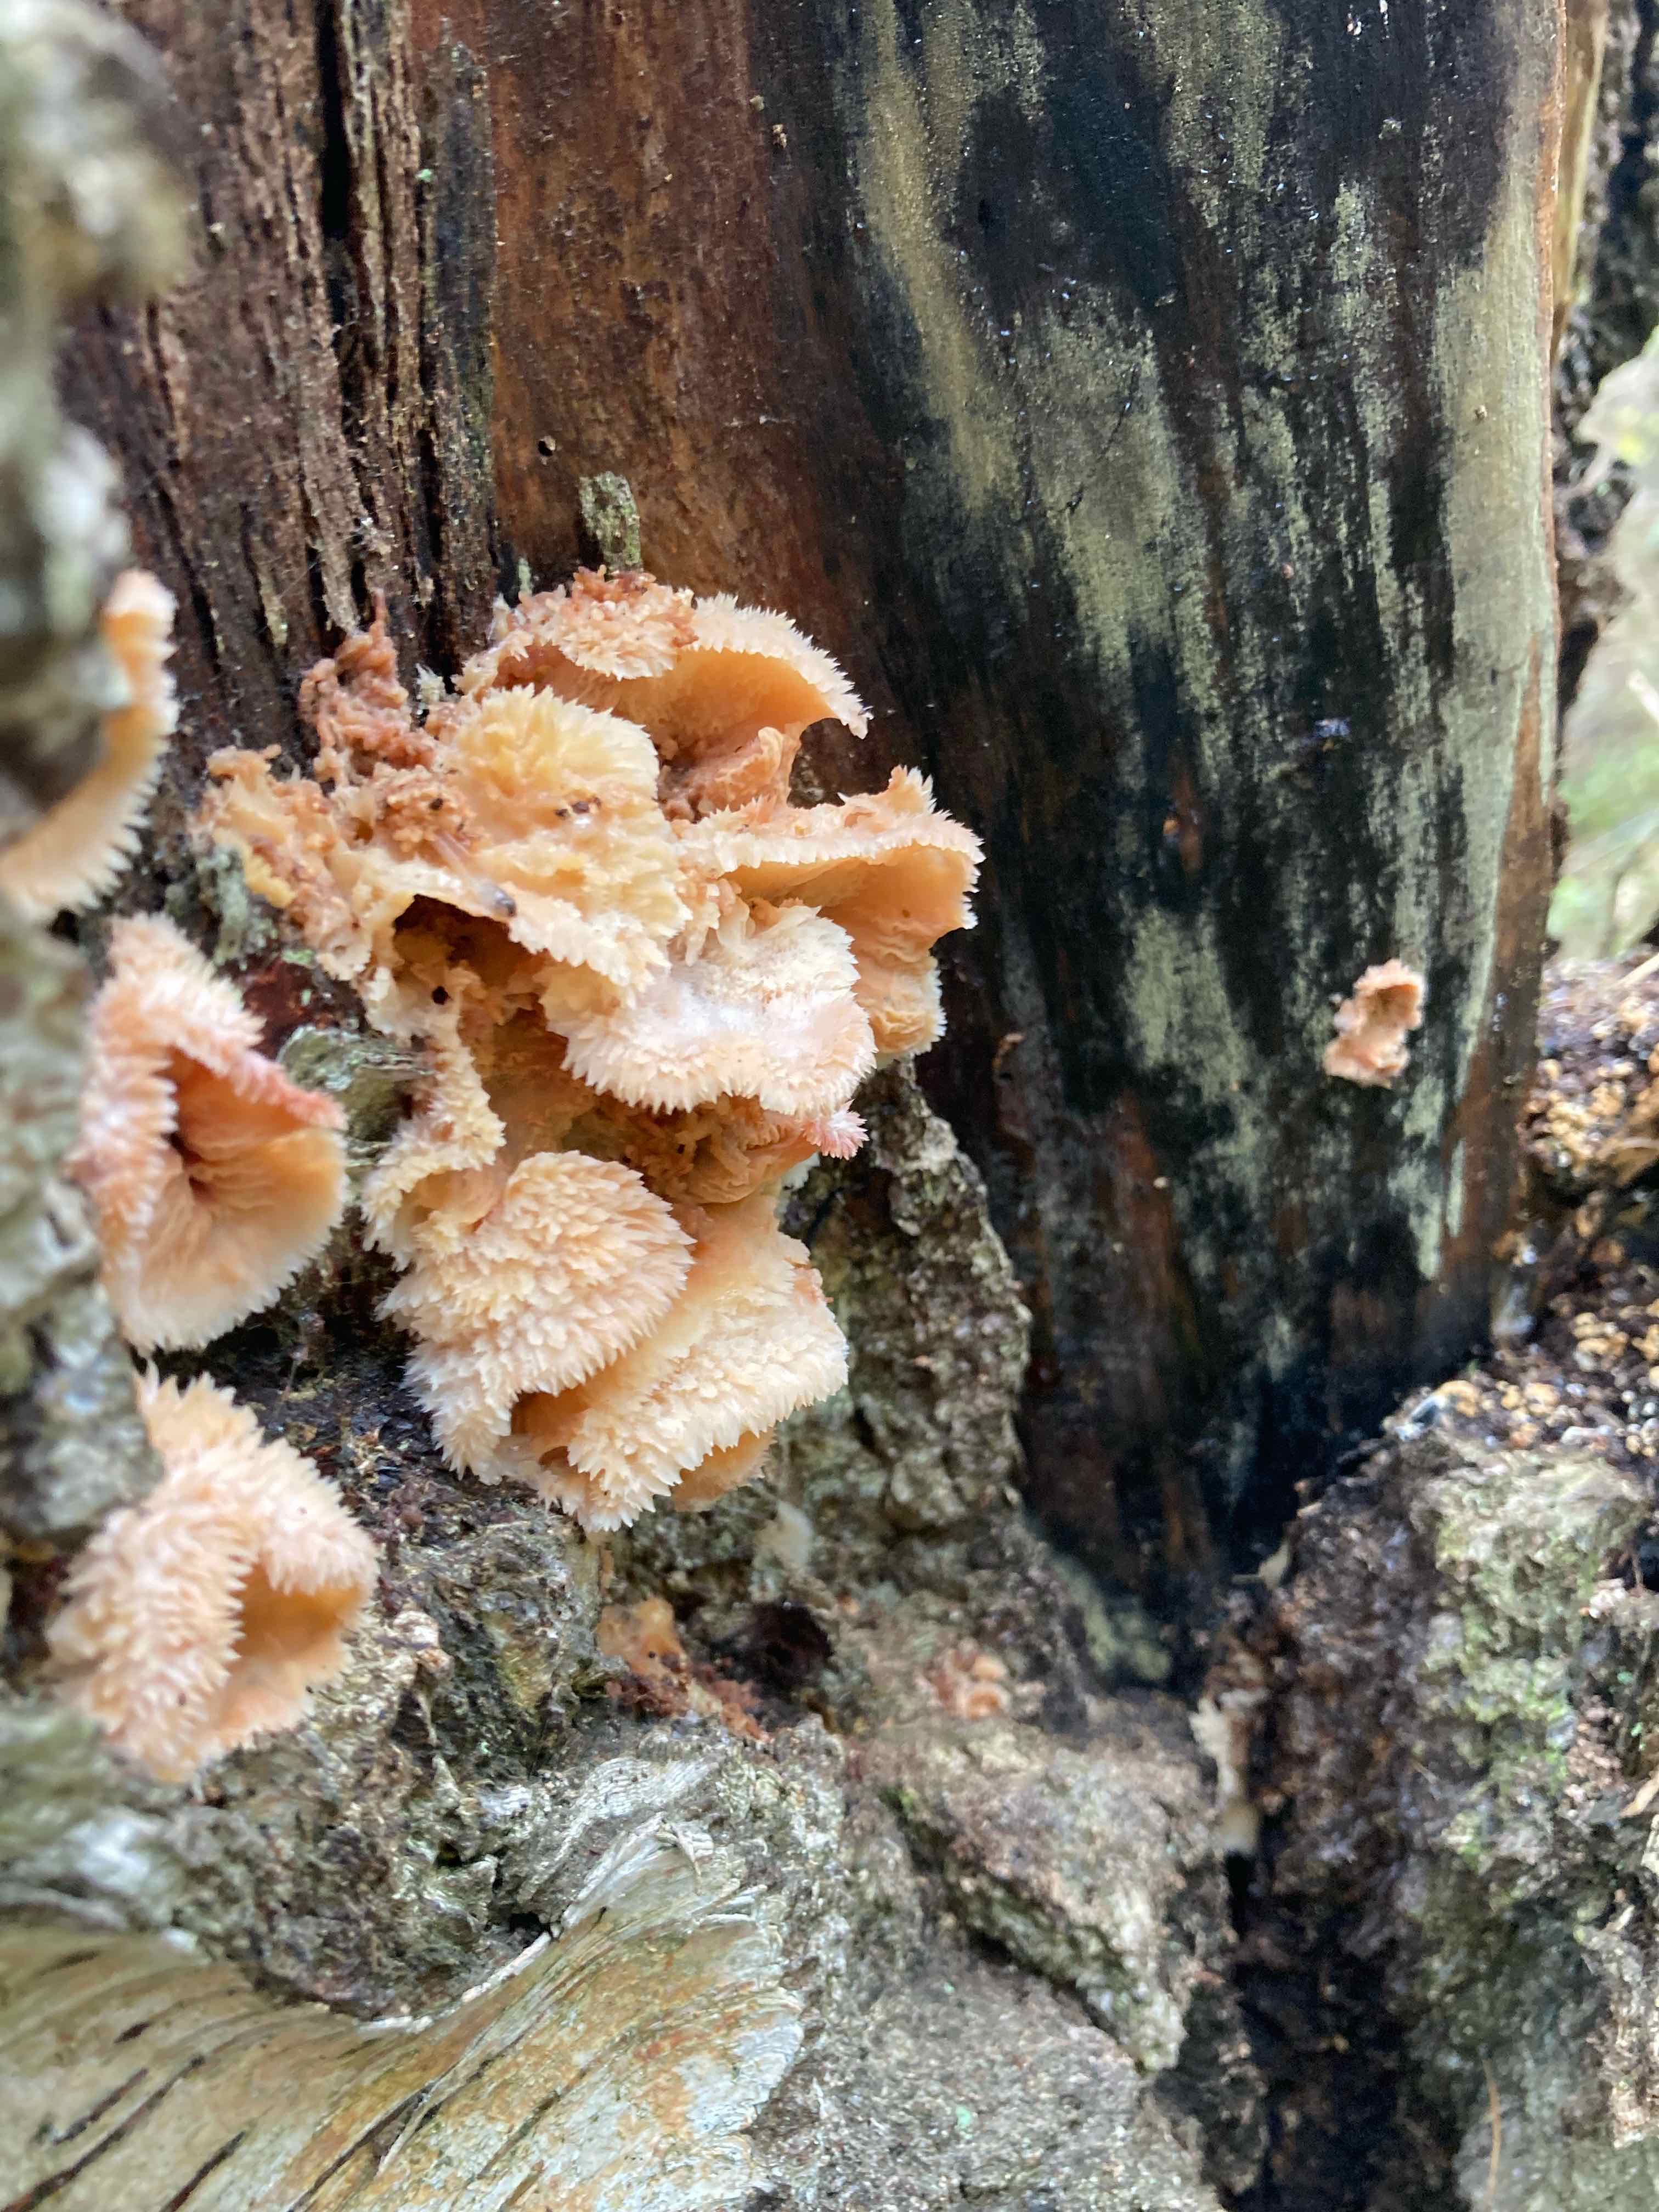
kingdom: Fungi
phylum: Basidiomycota
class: Agaricomycetes
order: Polyporales
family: Meruliaceae
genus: Phlebia
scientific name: Phlebia tremellosa
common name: bævrende åresvamp
